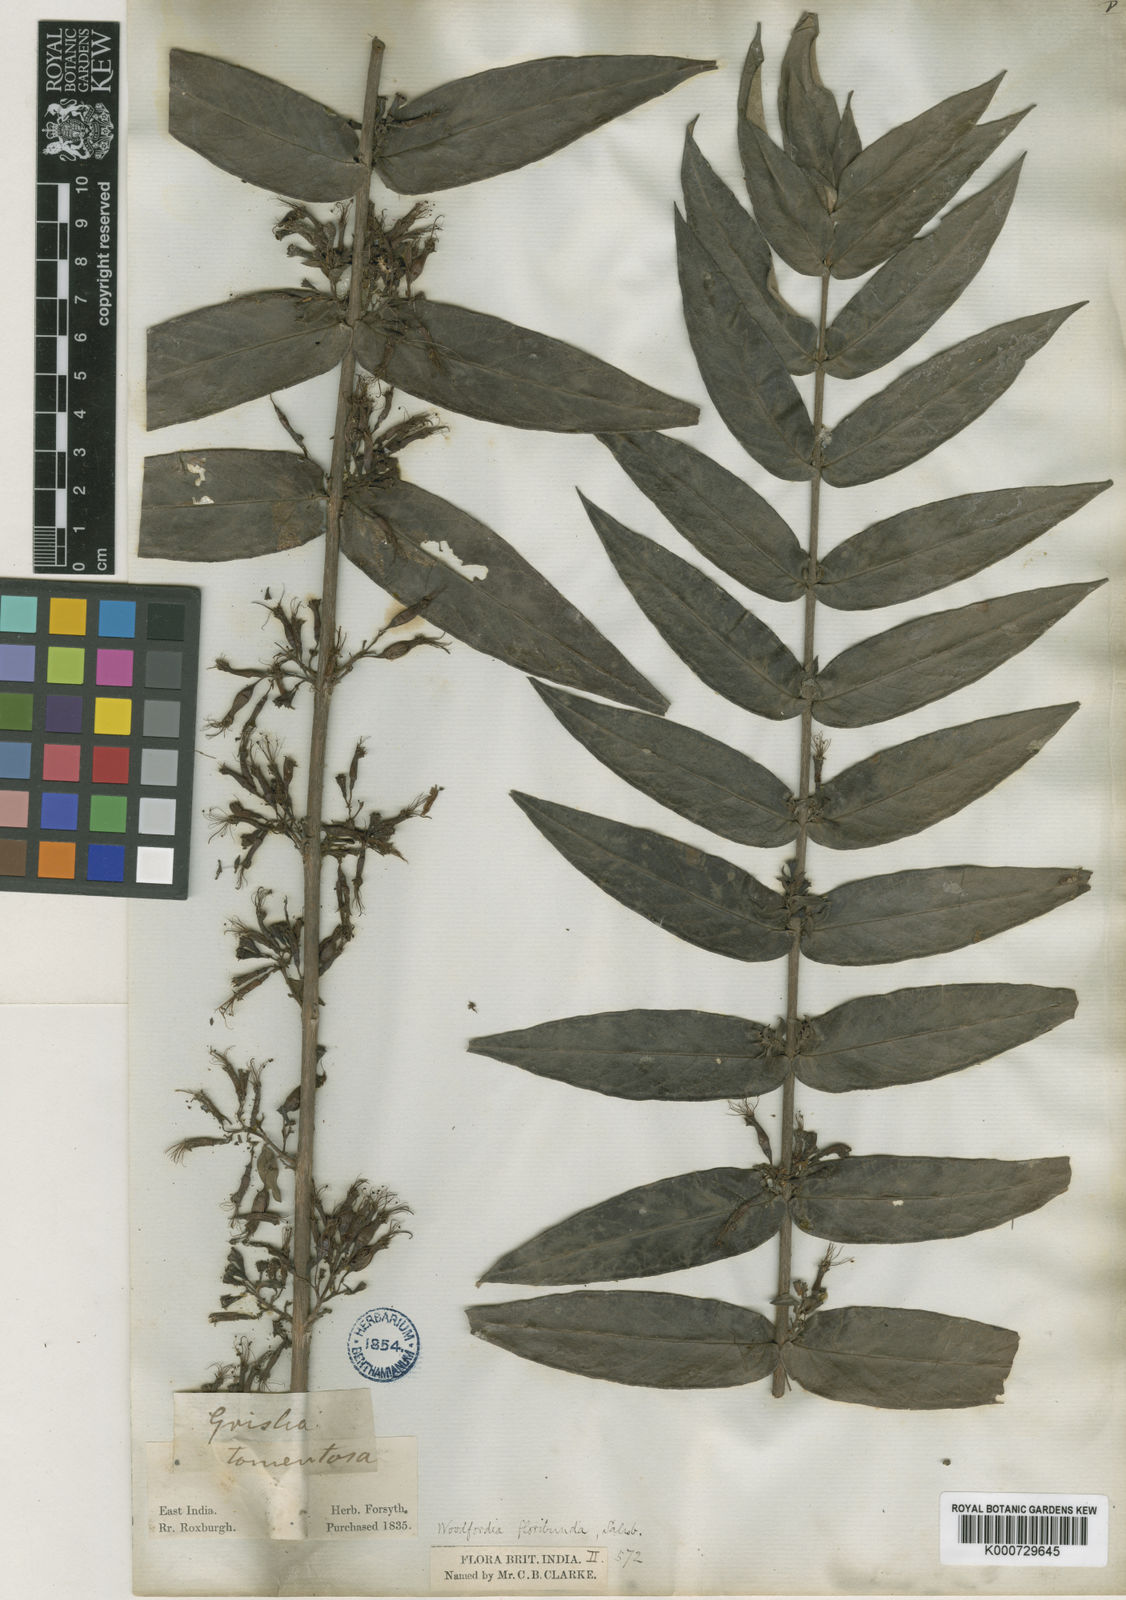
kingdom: Plantae
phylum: Tracheophyta
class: Magnoliopsida
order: Myrtales
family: Lythraceae
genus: Woodfordia
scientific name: Woodfordia fruticosa
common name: Shiranji-tea
